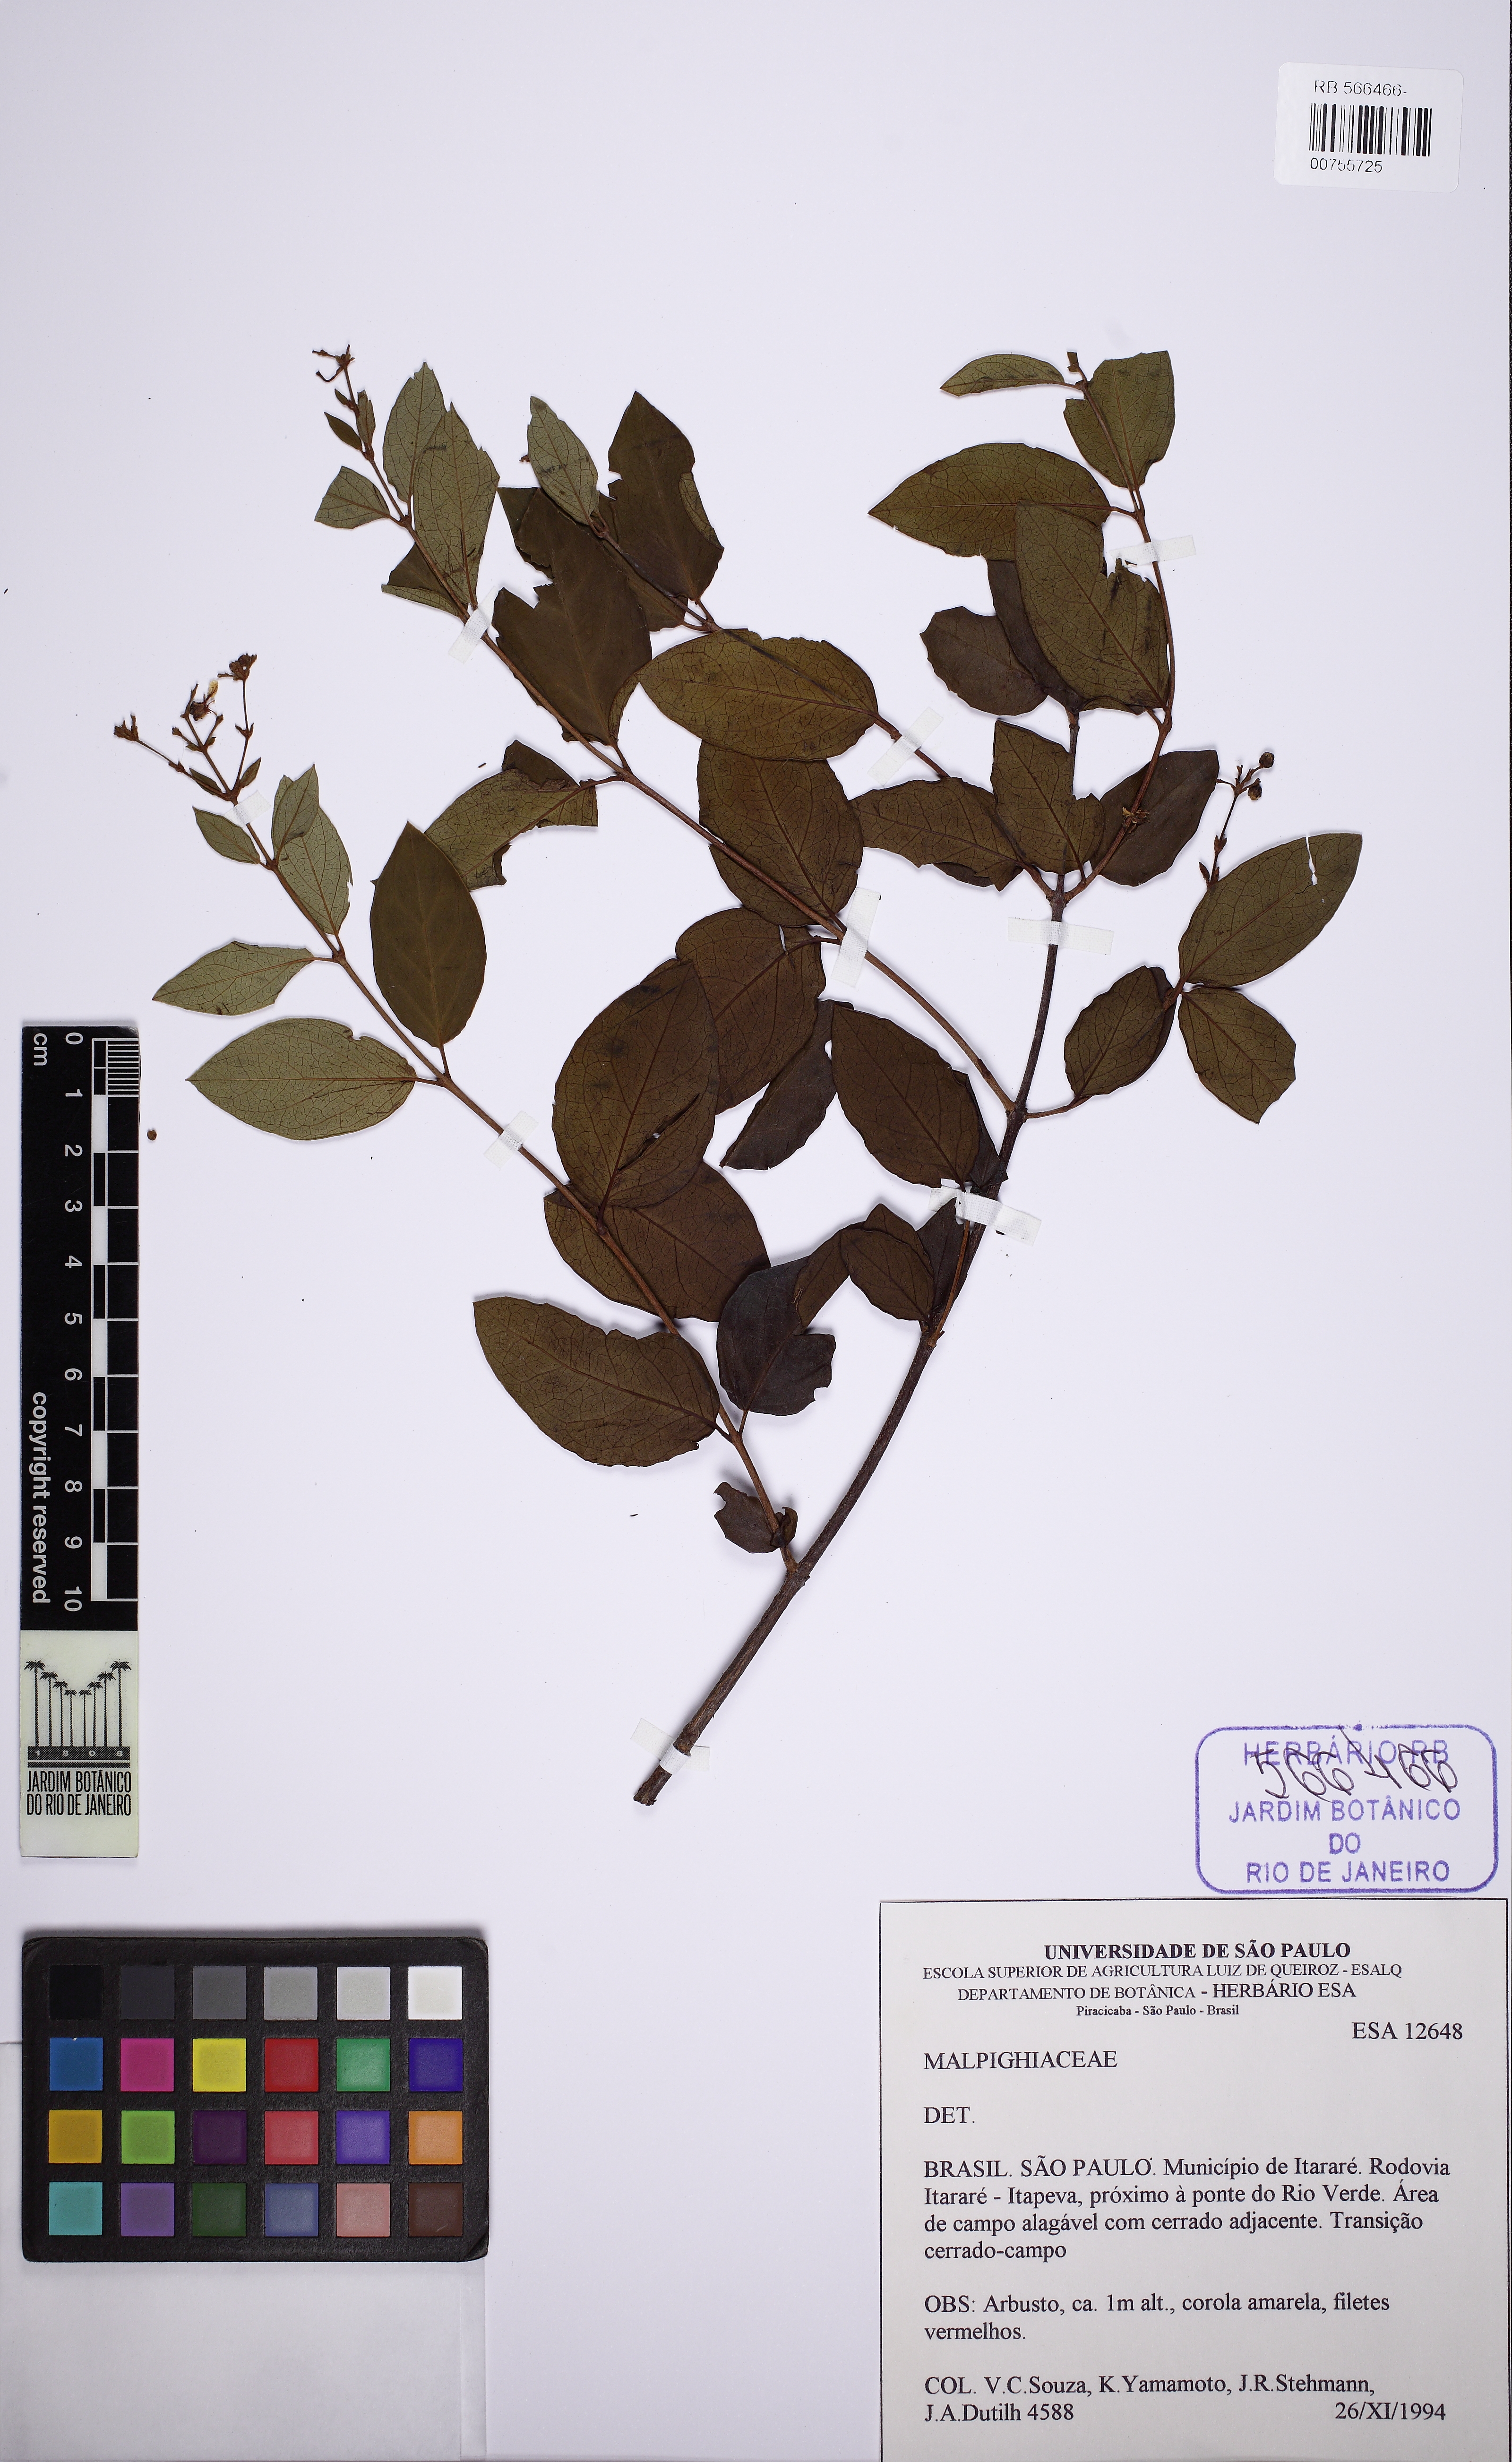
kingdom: Plantae
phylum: Tracheophyta
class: Magnoliopsida
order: Malpighiales
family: Malpighiaceae
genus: Heteropterys
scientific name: Heteropterys
